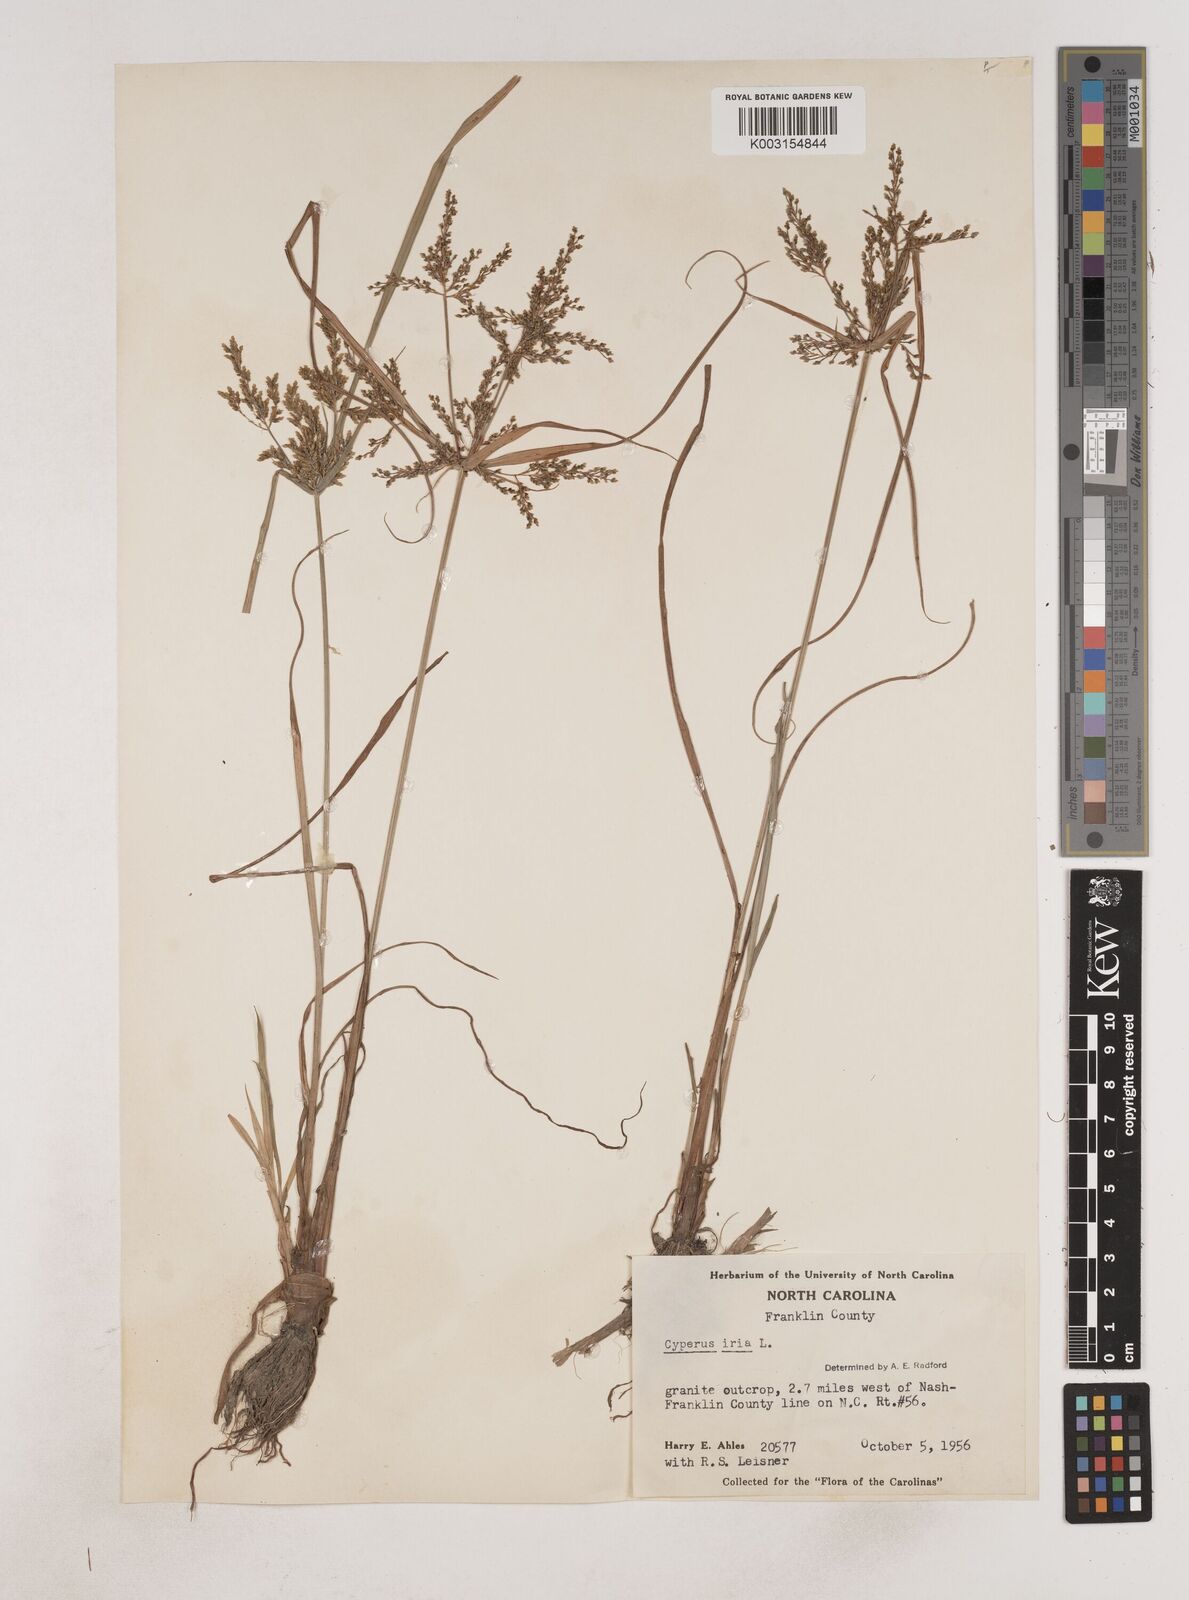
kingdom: Plantae
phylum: Tracheophyta
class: Liliopsida
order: Poales
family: Cyperaceae
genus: Cyperus
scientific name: Cyperus iria
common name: Ricefield flatsedge
